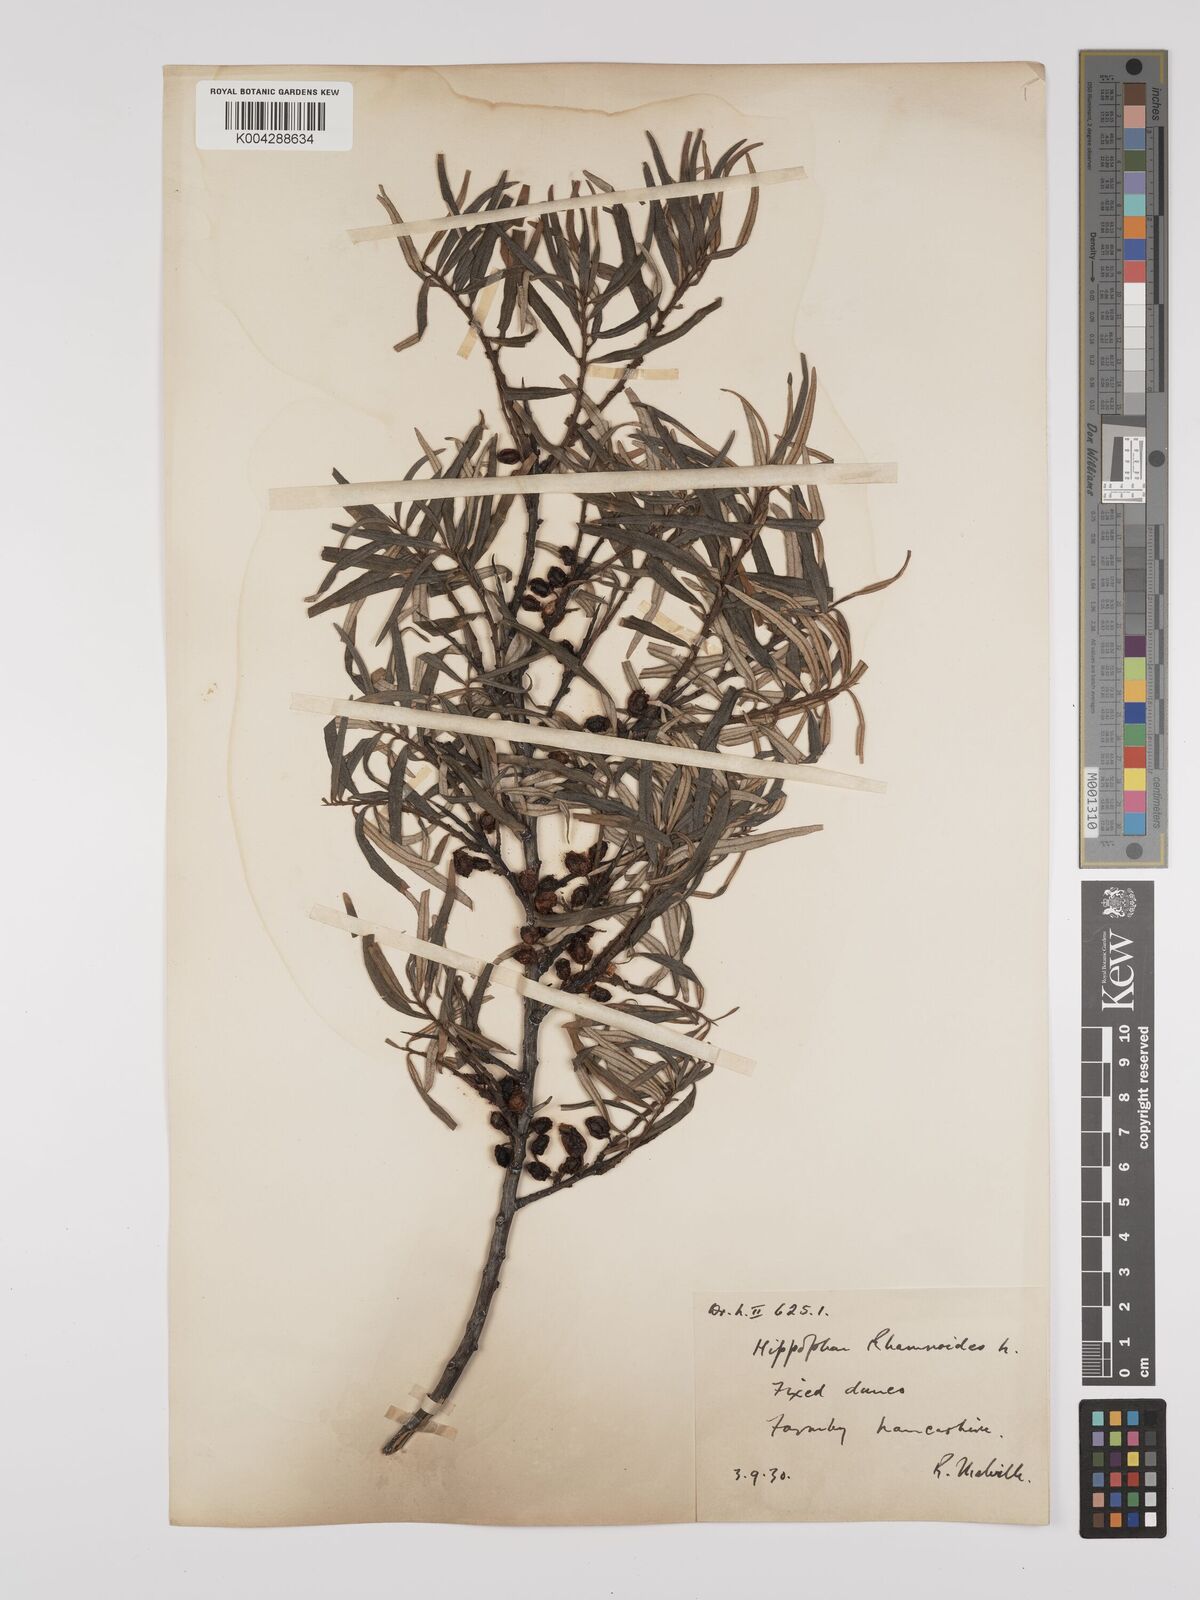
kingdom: Plantae
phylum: Tracheophyta
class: Magnoliopsida
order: Rosales
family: Elaeagnaceae
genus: Hippophae
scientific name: Hippophae rhamnoides
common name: Sea-buckthorn
